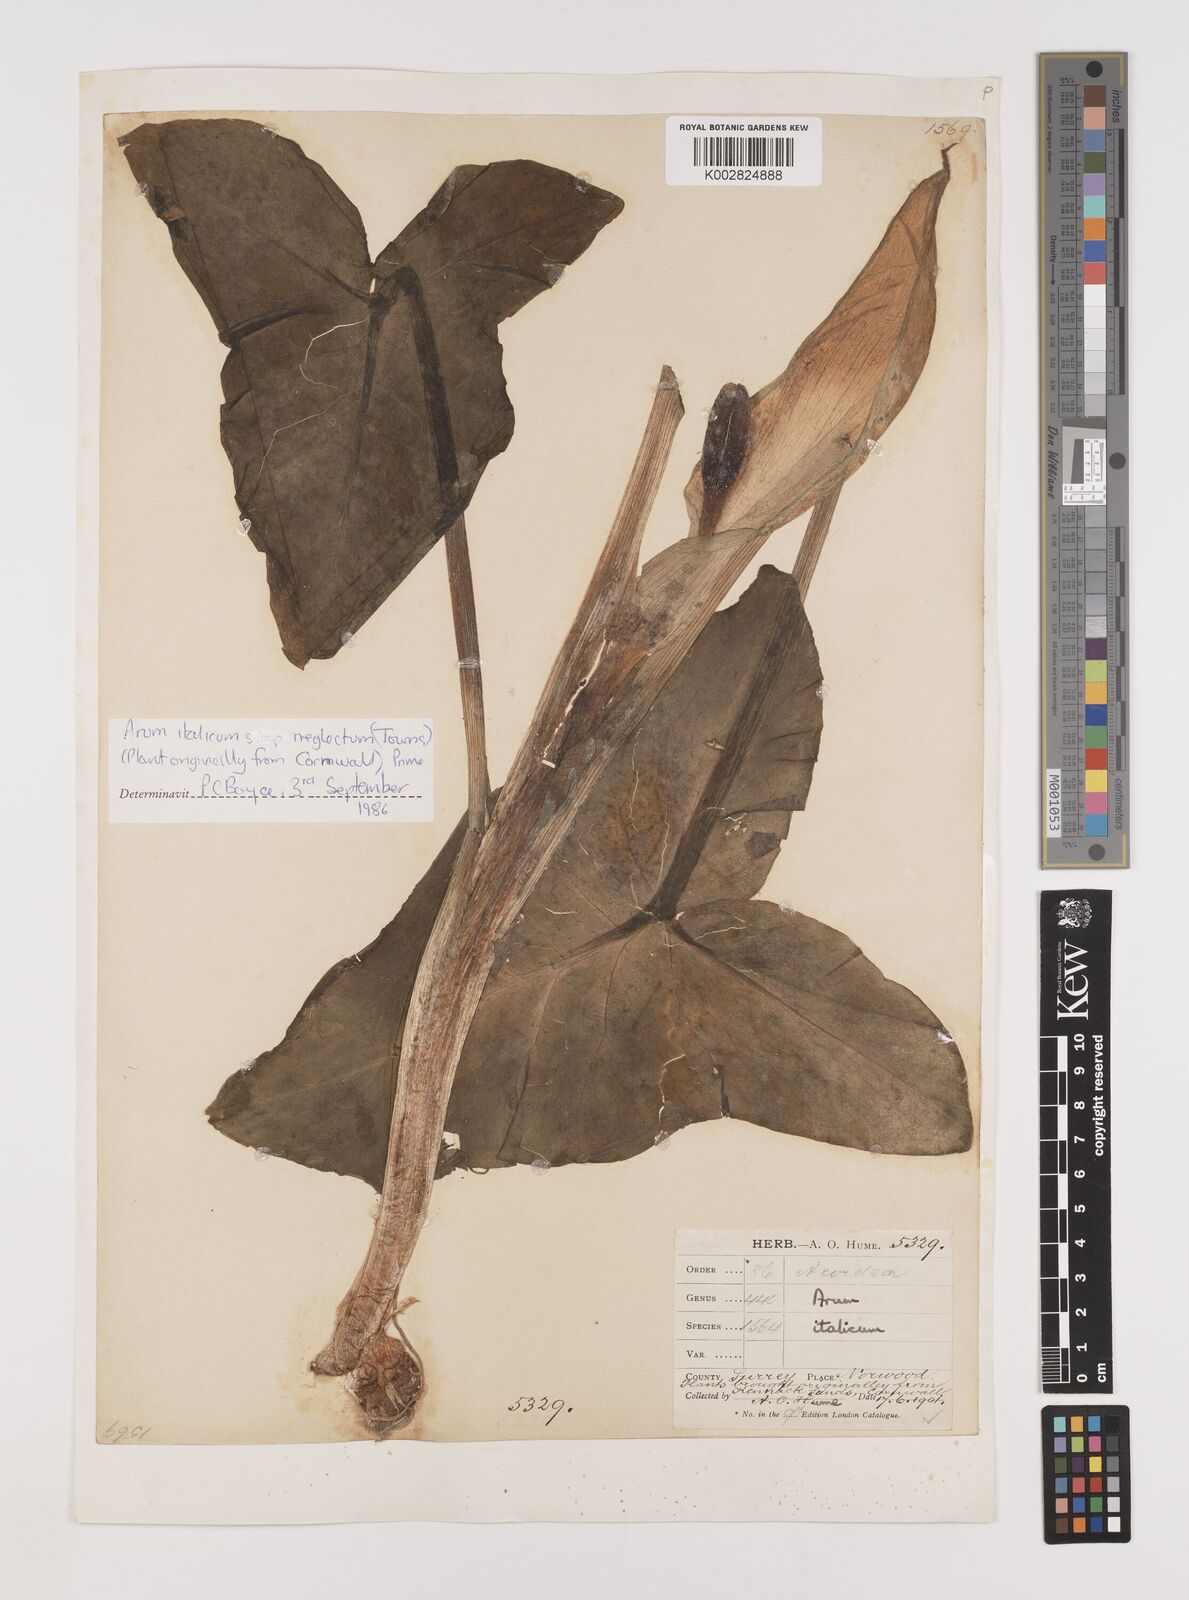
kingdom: Plantae
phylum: Tracheophyta
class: Liliopsida
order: Alismatales
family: Araceae
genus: Arum
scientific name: Arum italicum
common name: Italian lords-and-ladies
